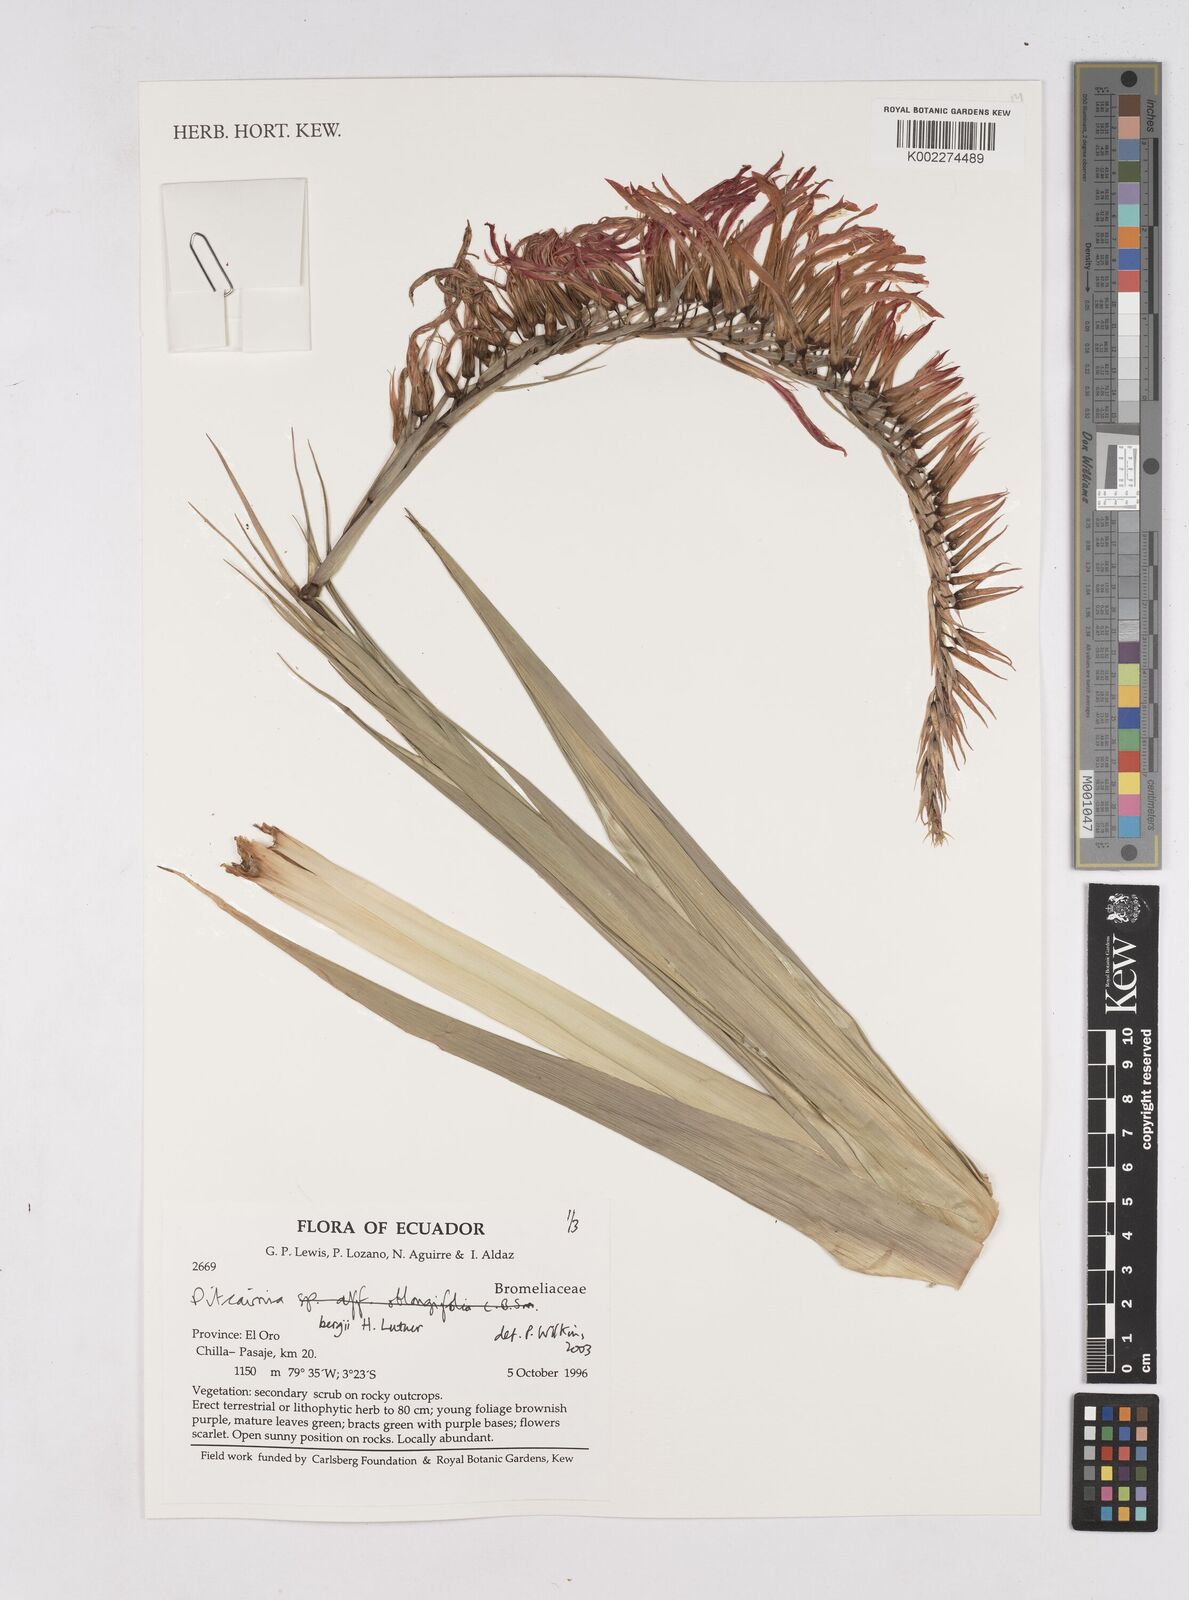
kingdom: Plantae
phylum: Tracheophyta
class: Liliopsida
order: Poales
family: Bromeliaceae
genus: Pitcairnia
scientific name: Pitcairnia bergii
